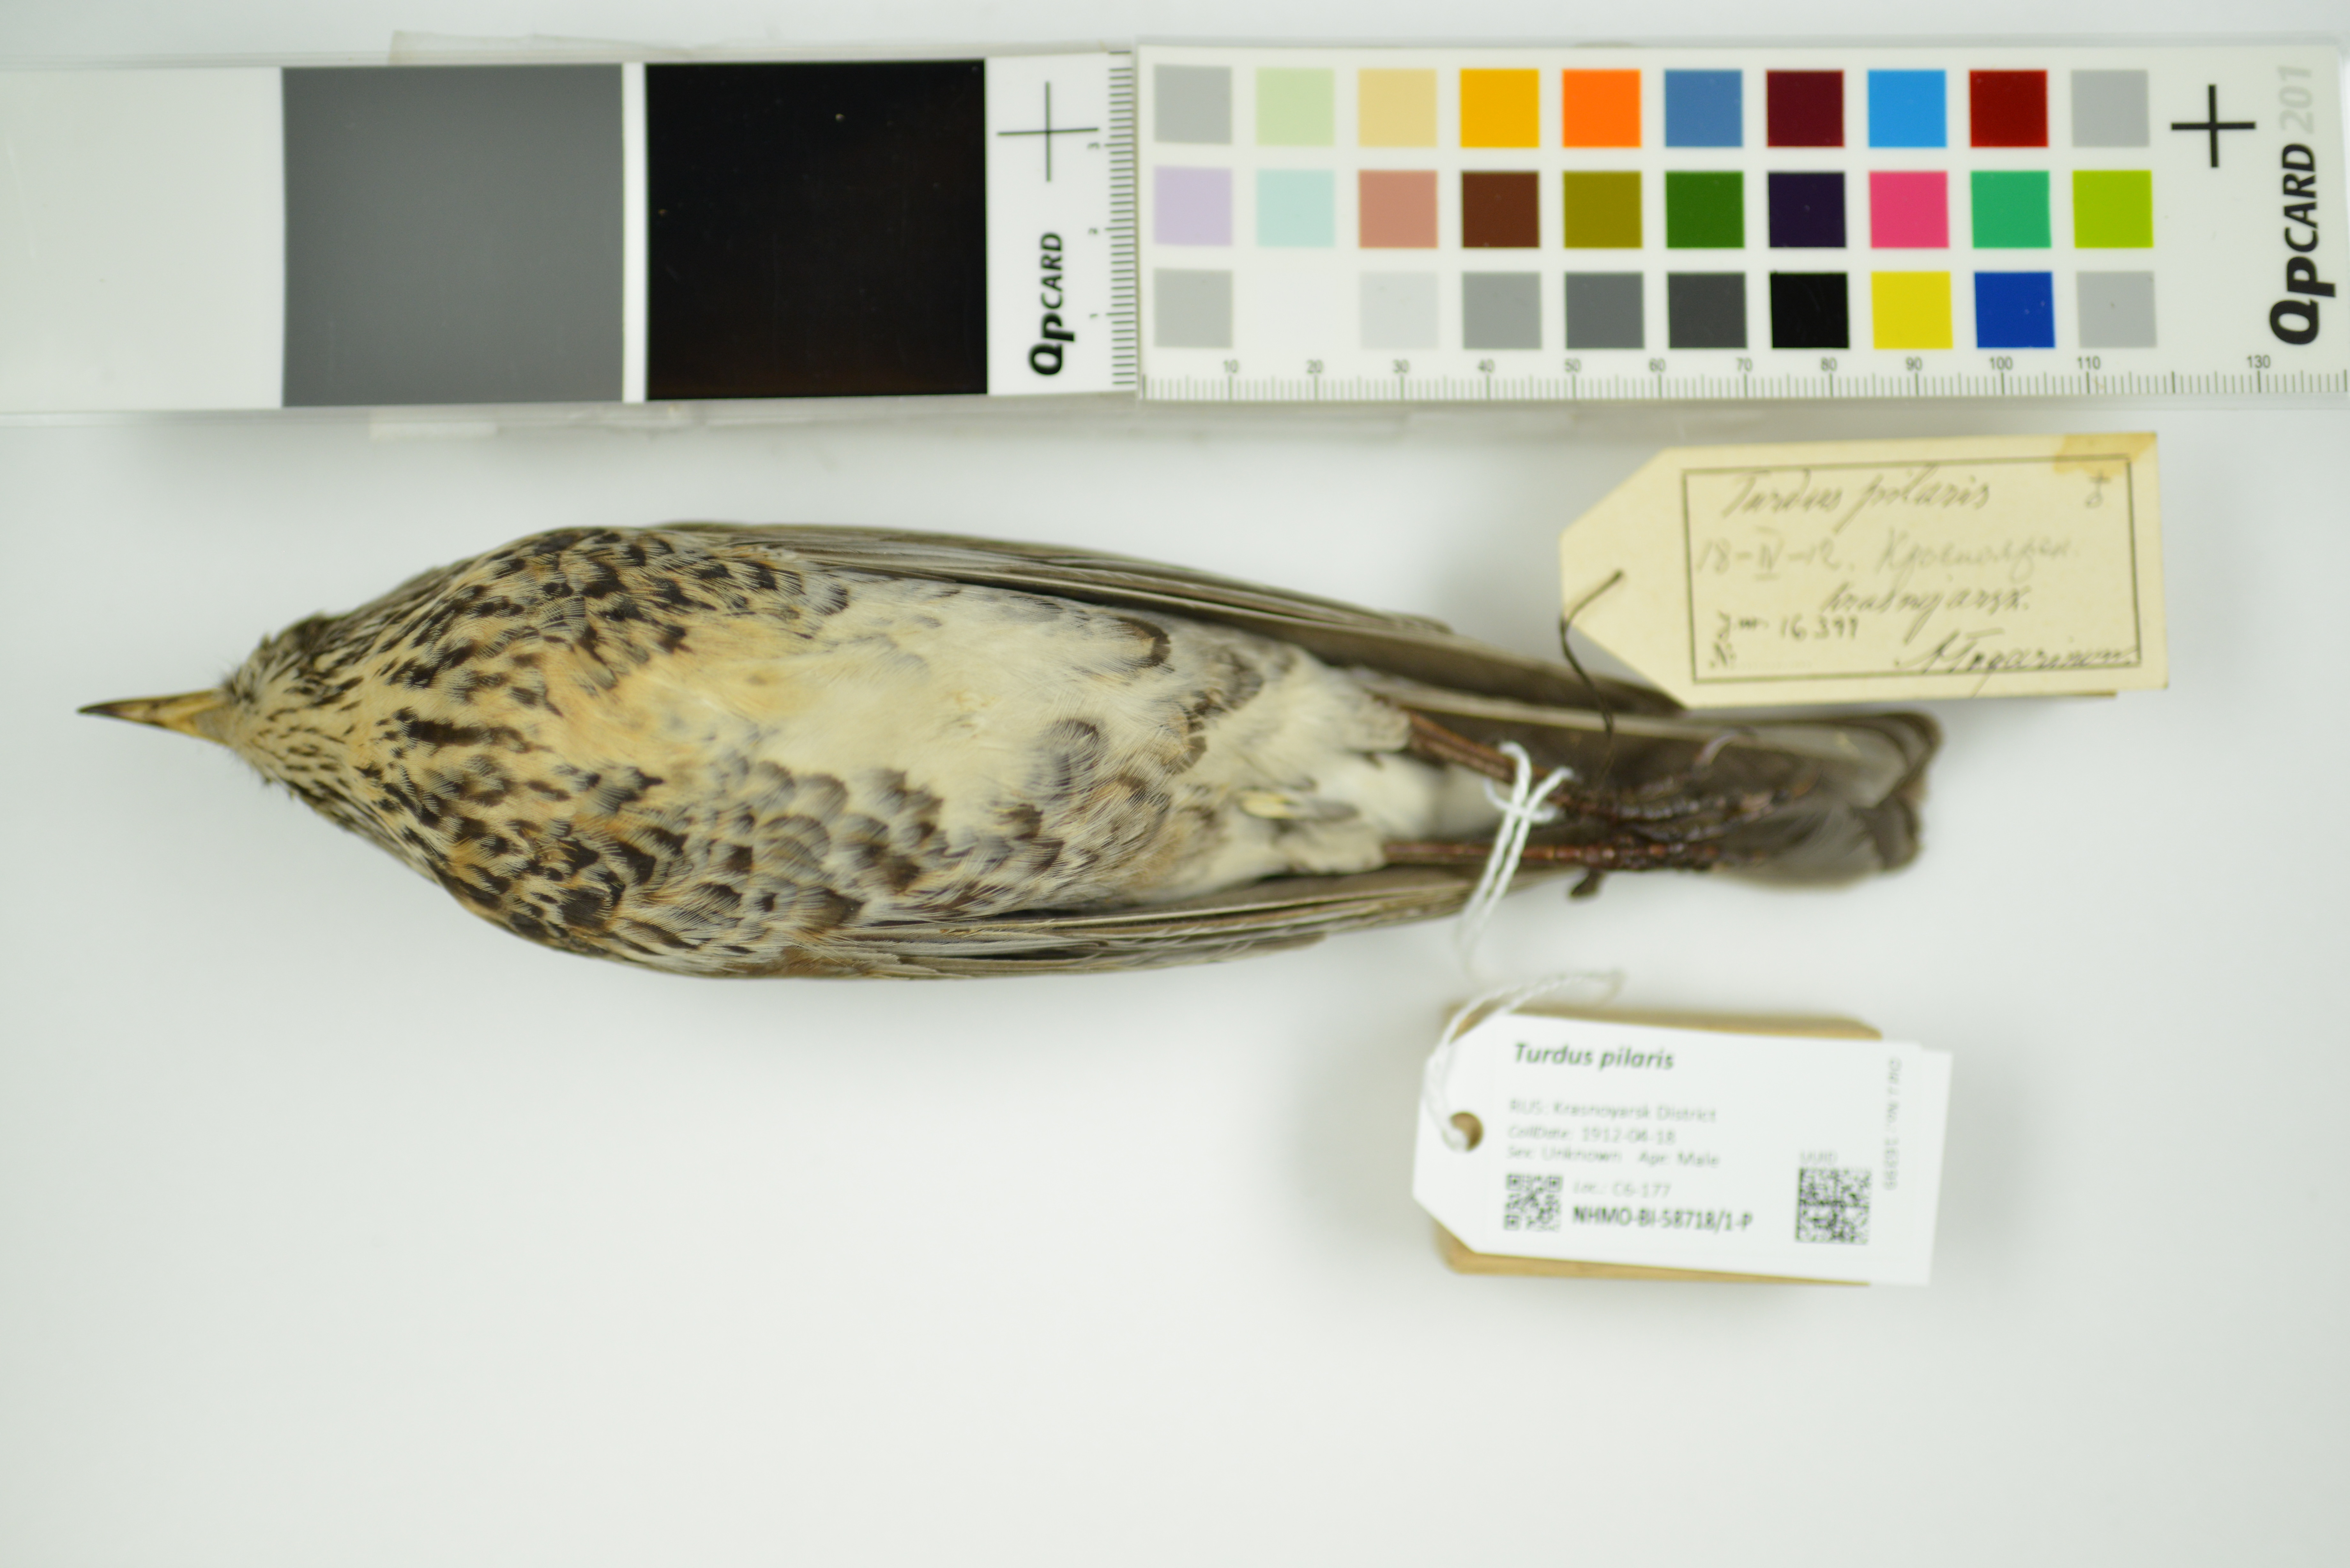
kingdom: Animalia
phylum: Chordata
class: Aves
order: Passeriformes
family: Turdidae
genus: Turdus
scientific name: Turdus pilaris
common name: Fieldfare
